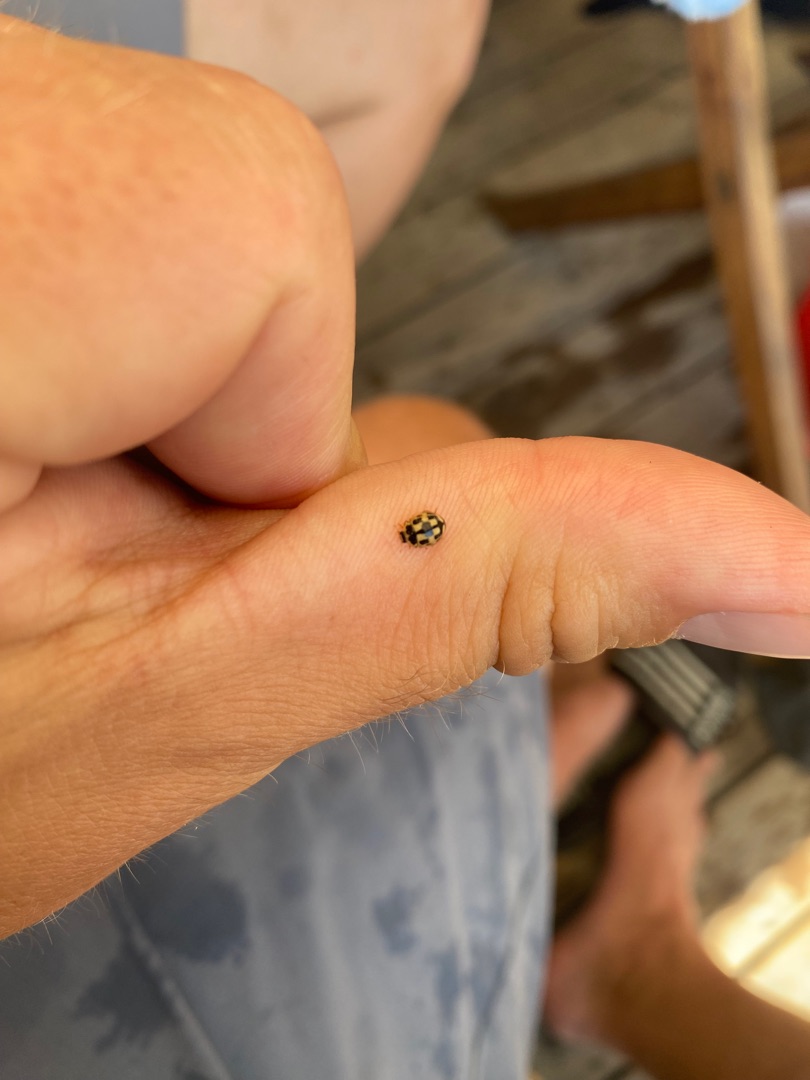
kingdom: Animalia
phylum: Arthropoda
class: Insecta
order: Coleoptera
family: Coccinellidae
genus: Propylaea
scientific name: Propylaea quatuordecimpunctata
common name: Skakbræt
